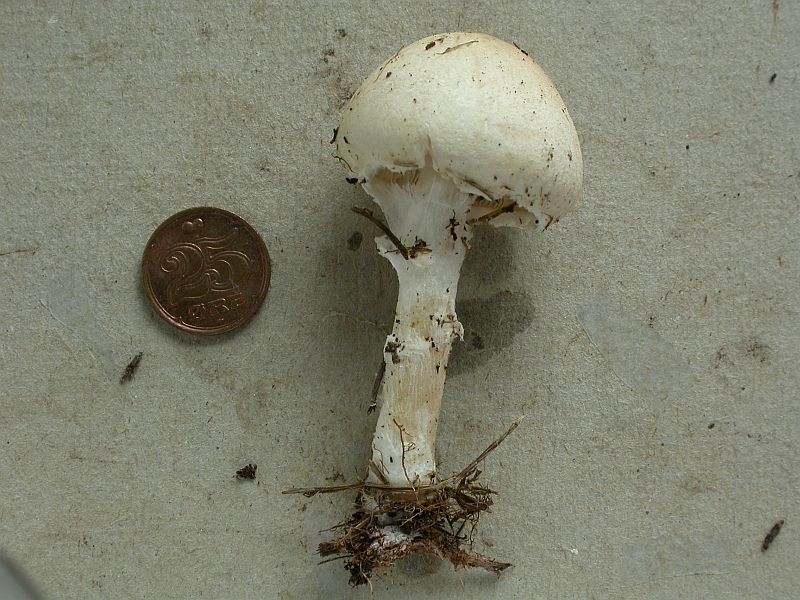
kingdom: Fungi
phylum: Basidiomycota
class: Agaricomycetes
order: Agaricales
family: Agaricaceae
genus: Lepiota
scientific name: Lepiota erminea
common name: hvid parasolhat
